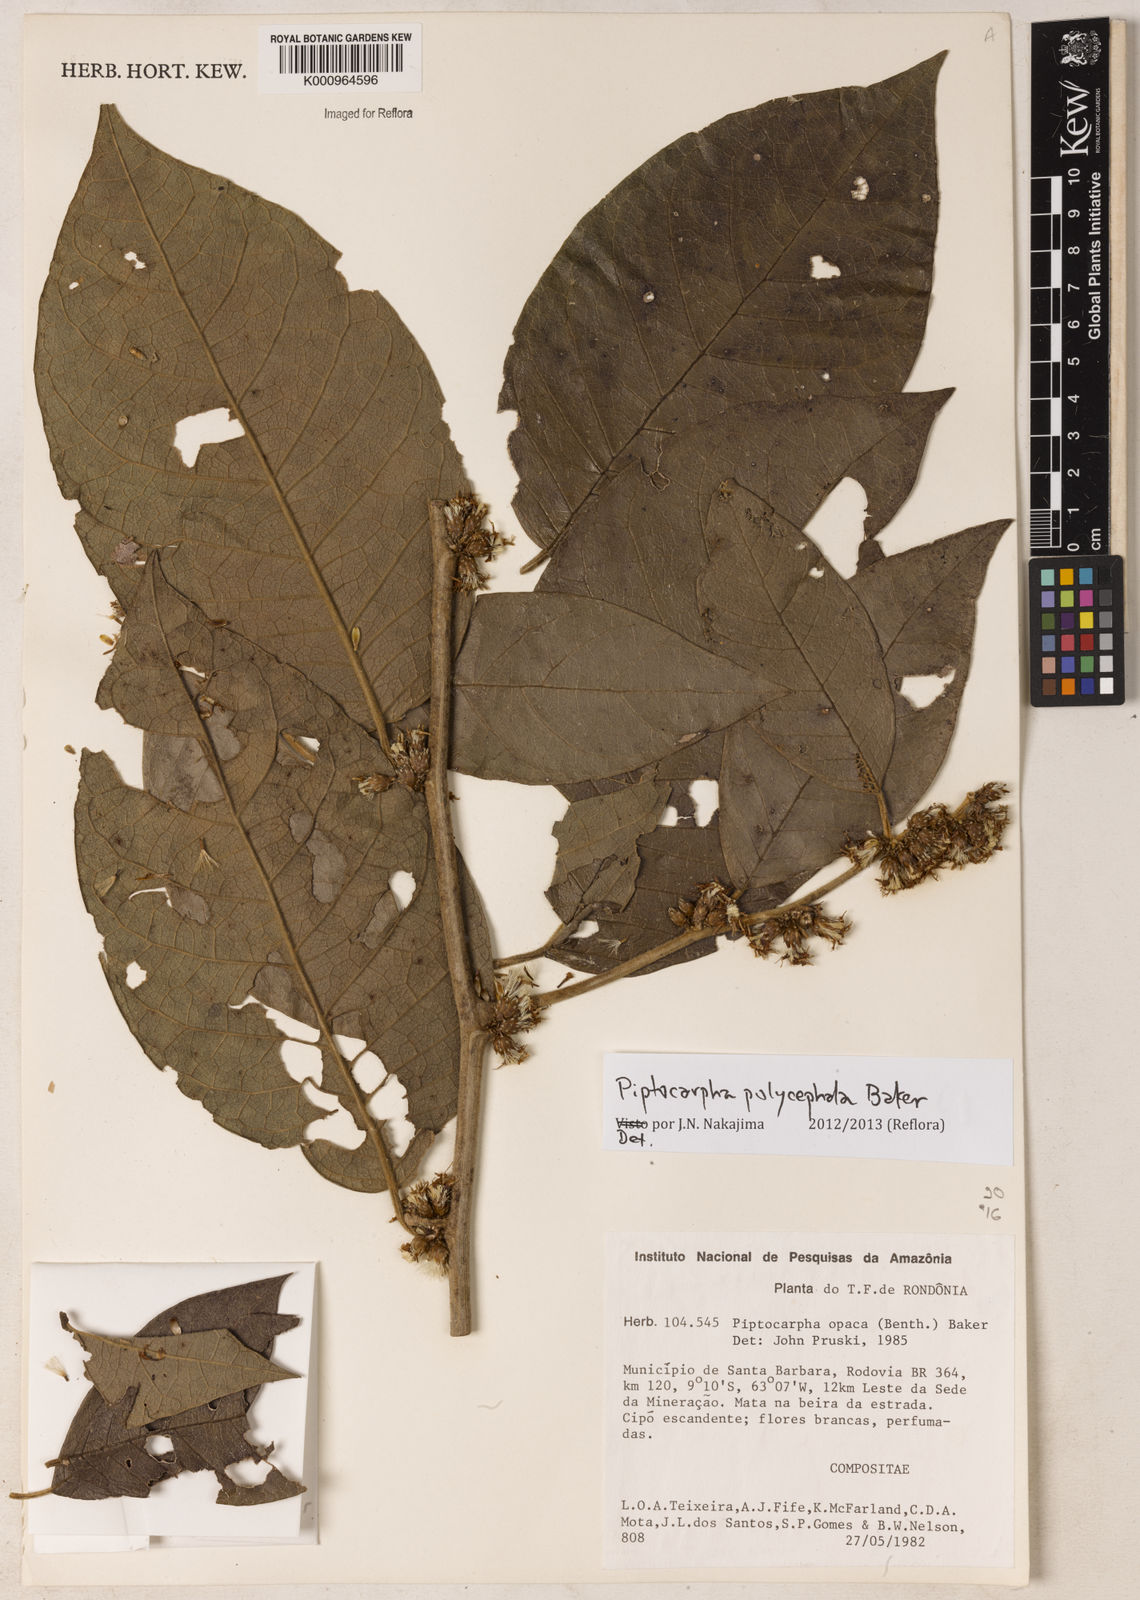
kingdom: Plantae
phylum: Tracheophyta
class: Magnoliopsida
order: Asterales
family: Asteraceae
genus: Piptocarpha
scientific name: Piptocarpha polycephala
